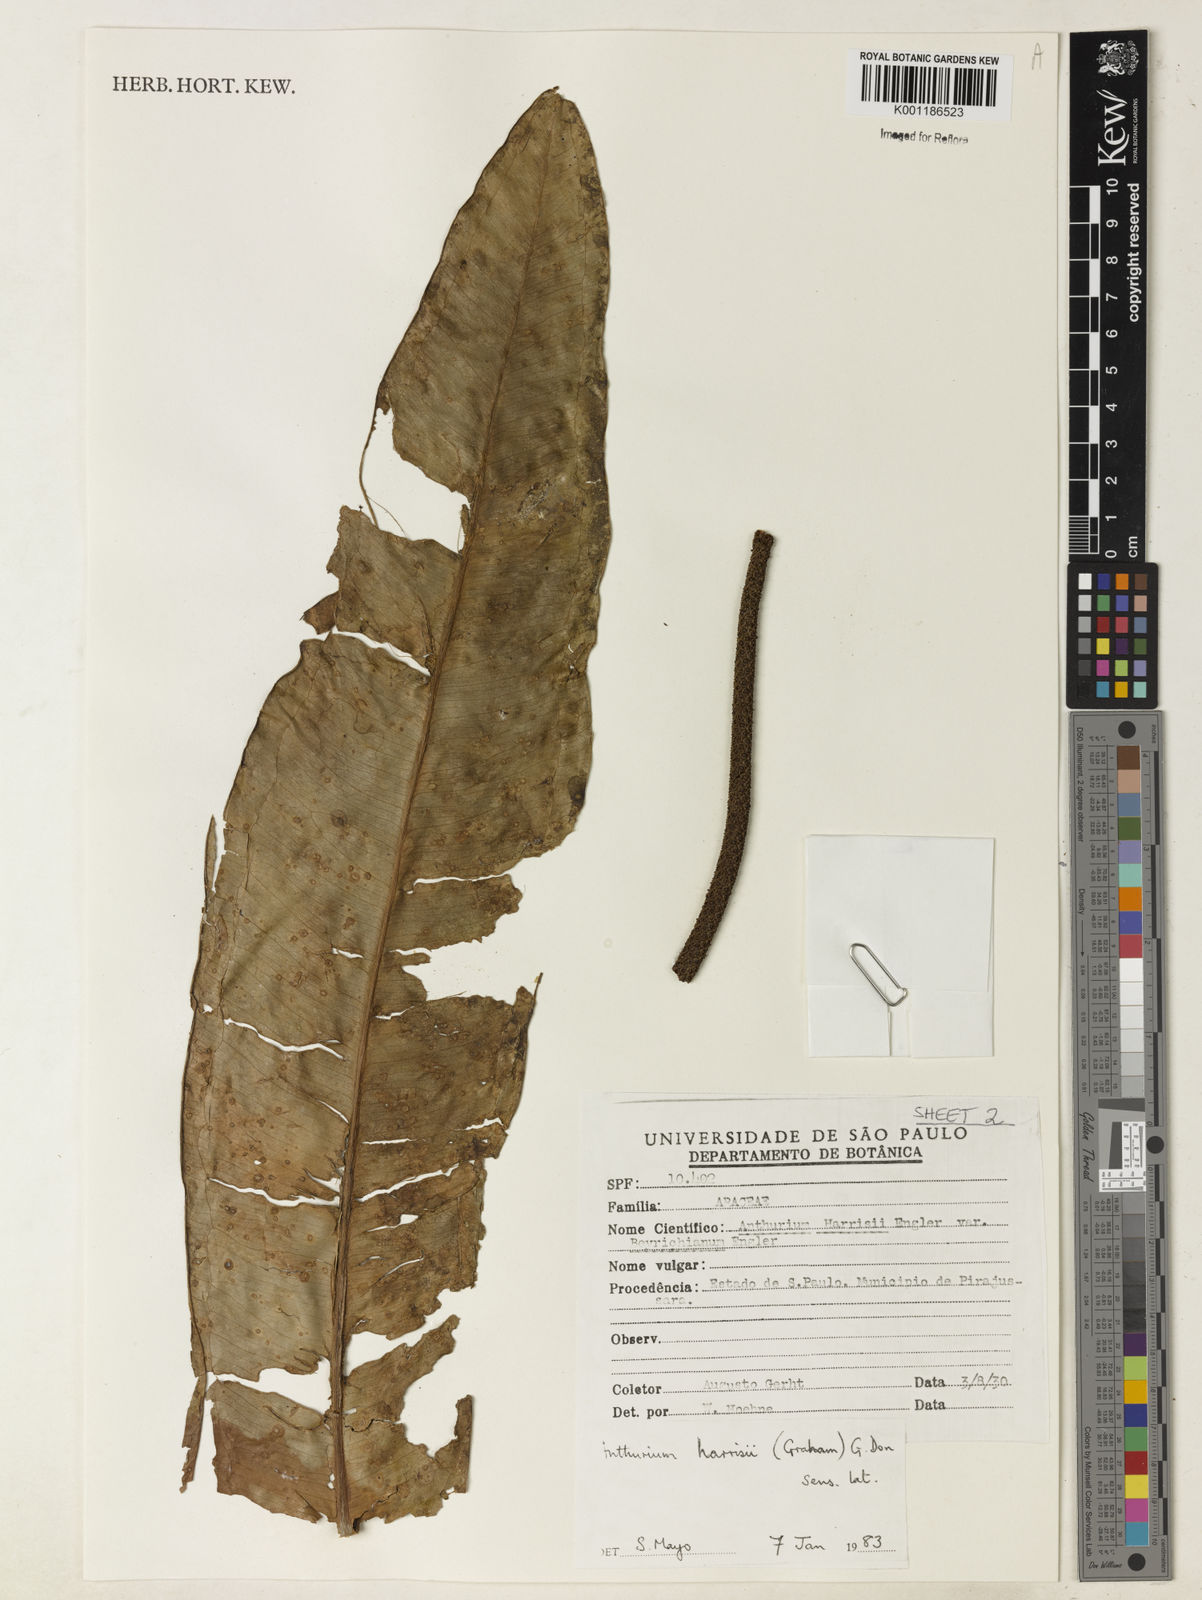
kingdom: Plantae
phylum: Tracheophyta
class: Liliopsida
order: Alismatales
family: Araceae
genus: Anthurium
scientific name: Anthurium harrisii
